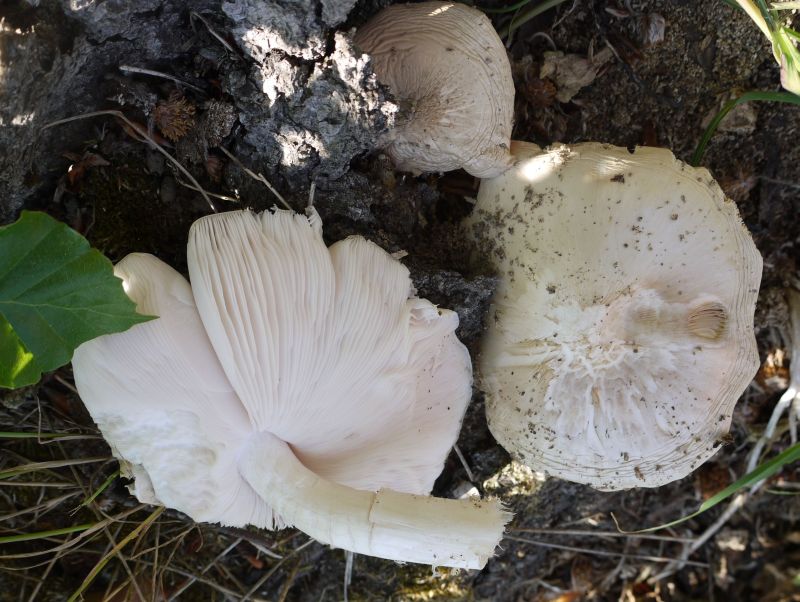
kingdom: Fungi
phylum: Basidiomycota
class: Agaricomycetes
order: Agaricales
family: Pluteaceae
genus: Pluteus
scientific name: Pluteus petasatus
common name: savsmulds-skærmhat
